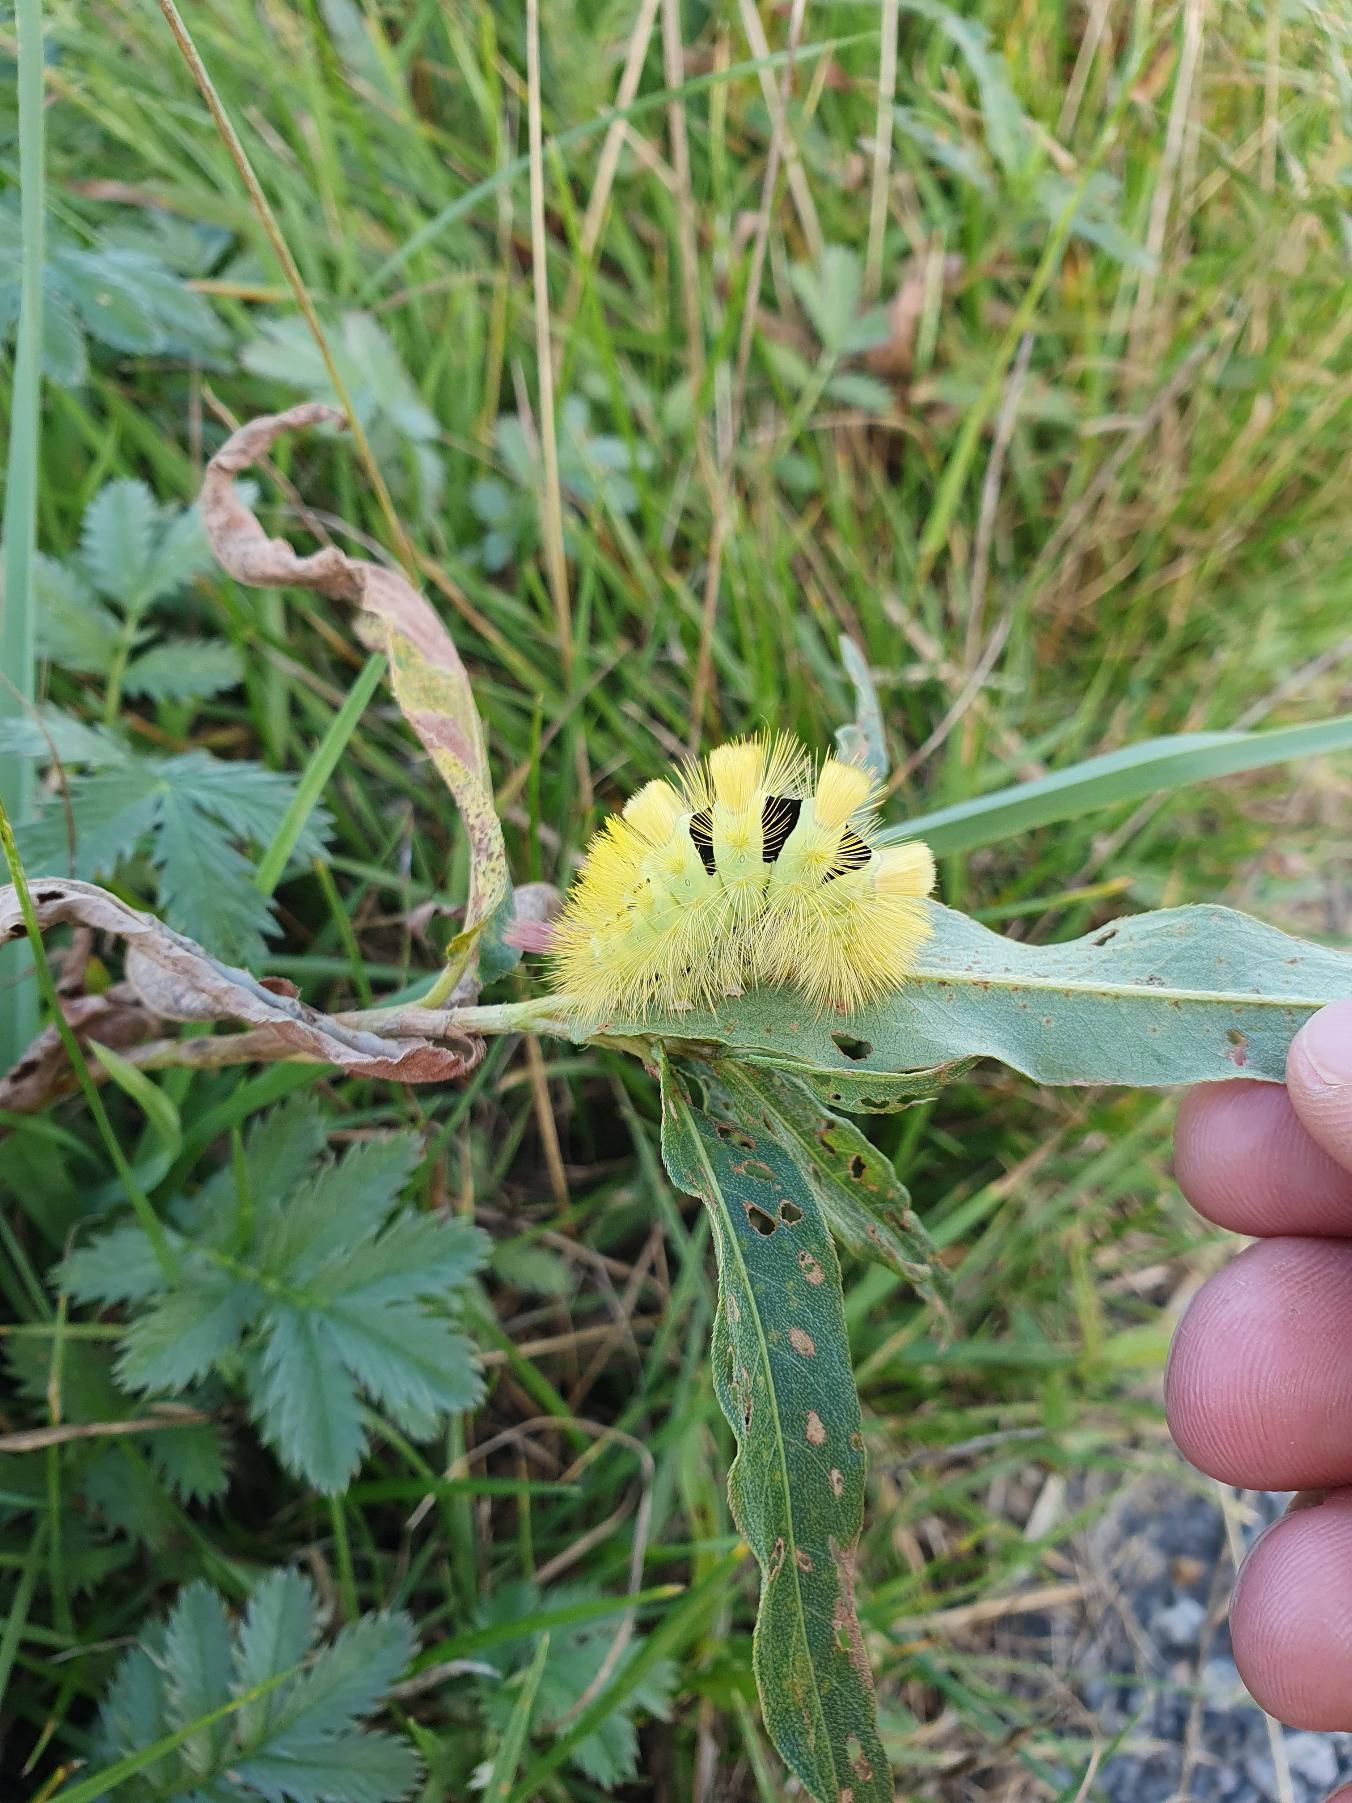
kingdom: Animalia
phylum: Arthropoda
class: Insecta
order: Lepidoptera
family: Erebidae
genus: Calliteara
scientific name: Calliteara pudibunda
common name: Bøgenonne
